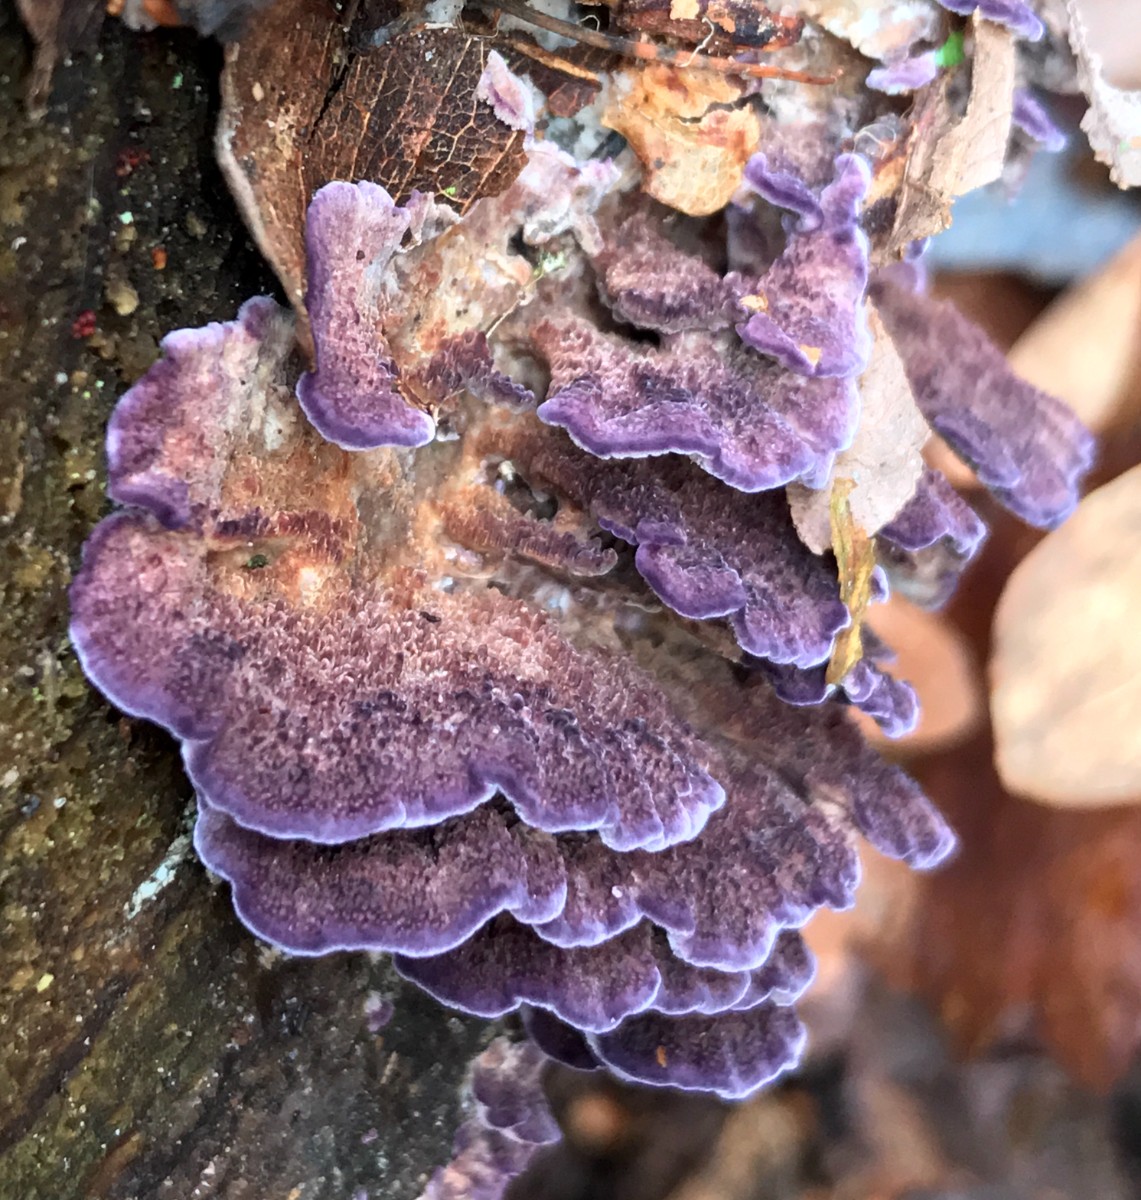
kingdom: Fungi
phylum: Basidiomycota
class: Agaricomycetes
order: Hymenochaetales
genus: Trichaptum
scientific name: Trichaptum abietinum
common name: almindelig violporesvamp
